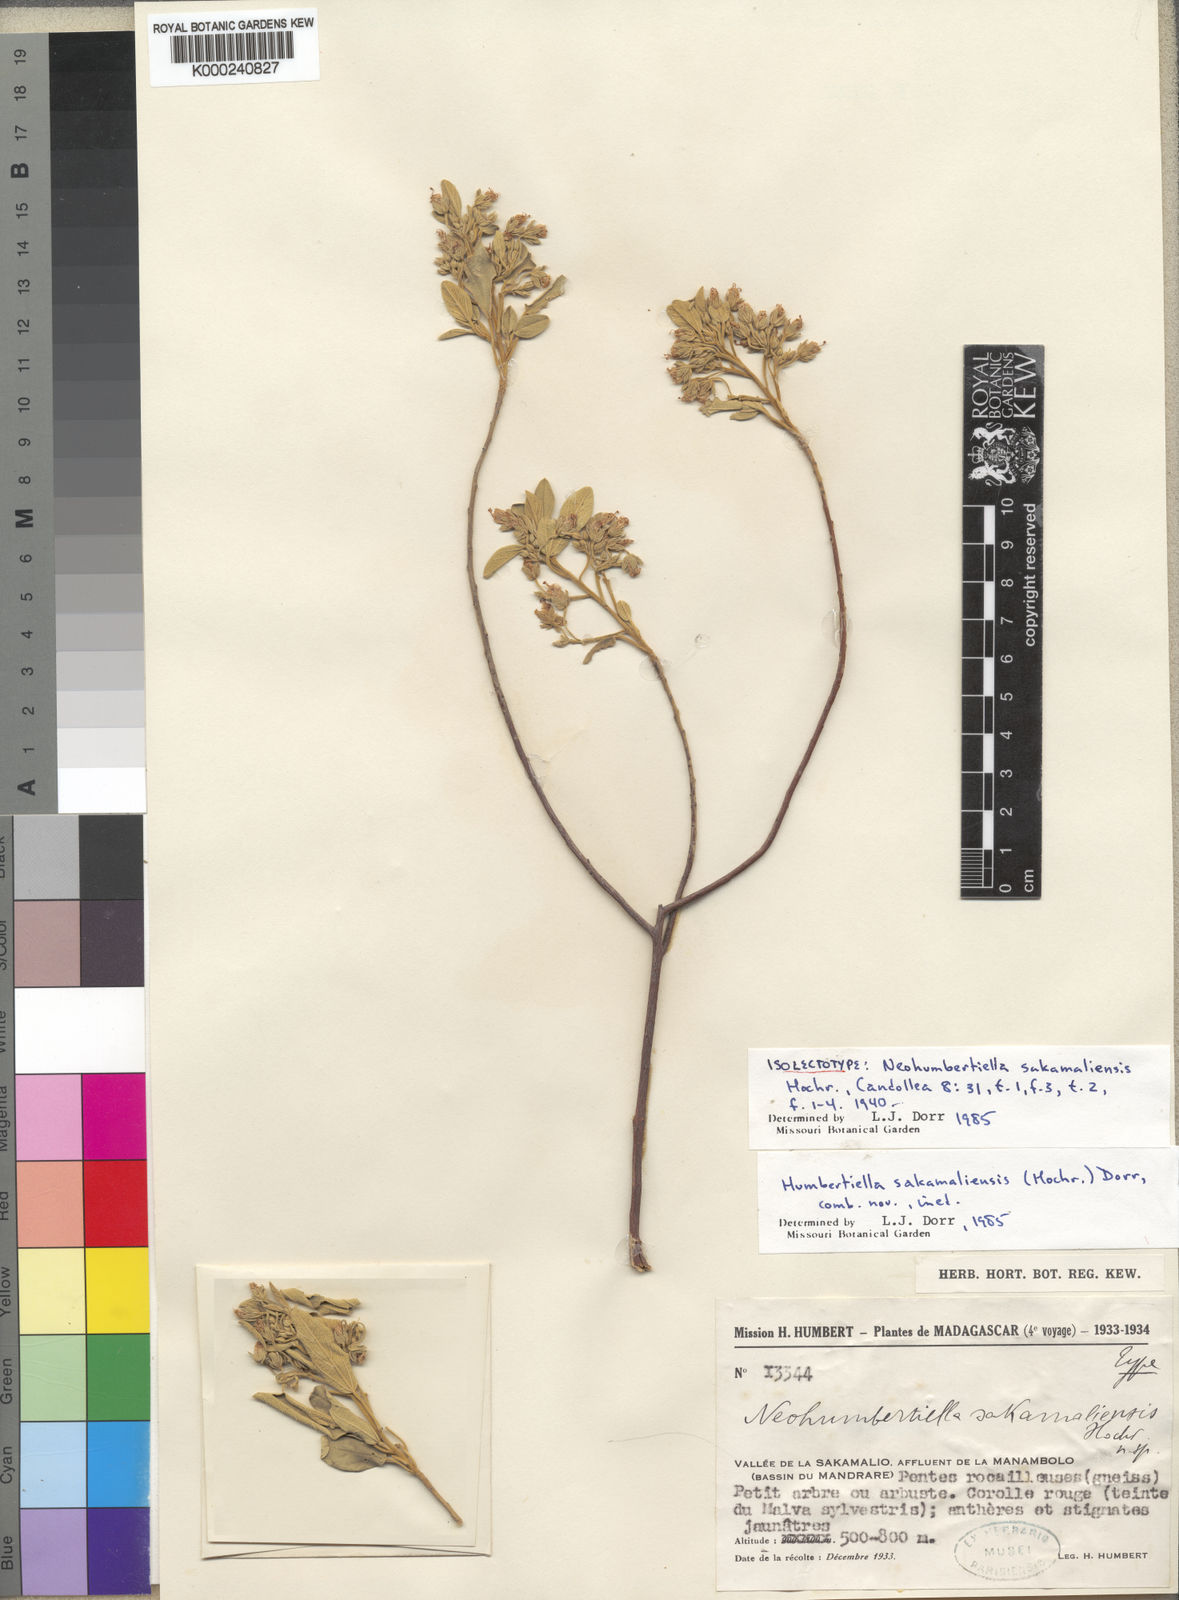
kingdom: Plantae
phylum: Tracheophyta
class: Magnoliopsida
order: Malvales
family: Malvaceae
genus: Humbertiella
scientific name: Humbertiella sakamaliensis
